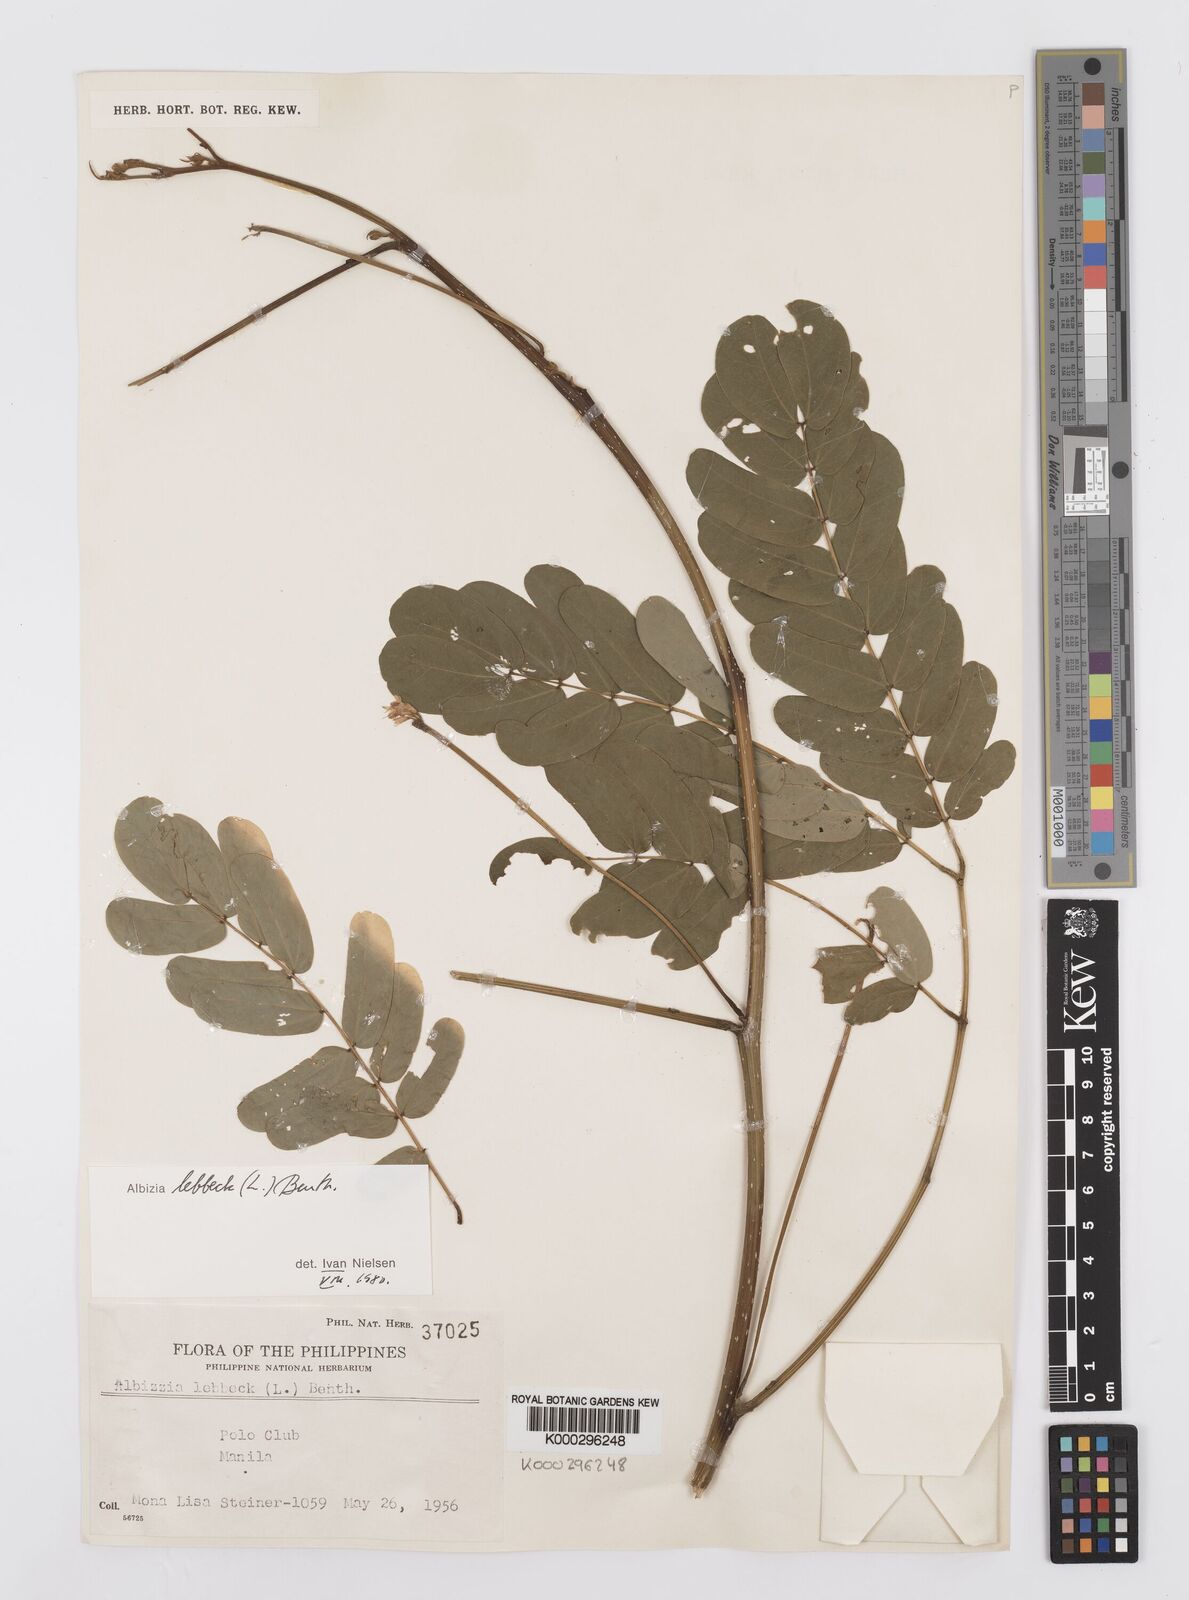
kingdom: Plantae
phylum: Tracheophyta
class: Magnoliopsida
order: Fabales
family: Fabaceae
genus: Albizia
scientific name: Albizia lebbeck
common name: Woman's tongue
